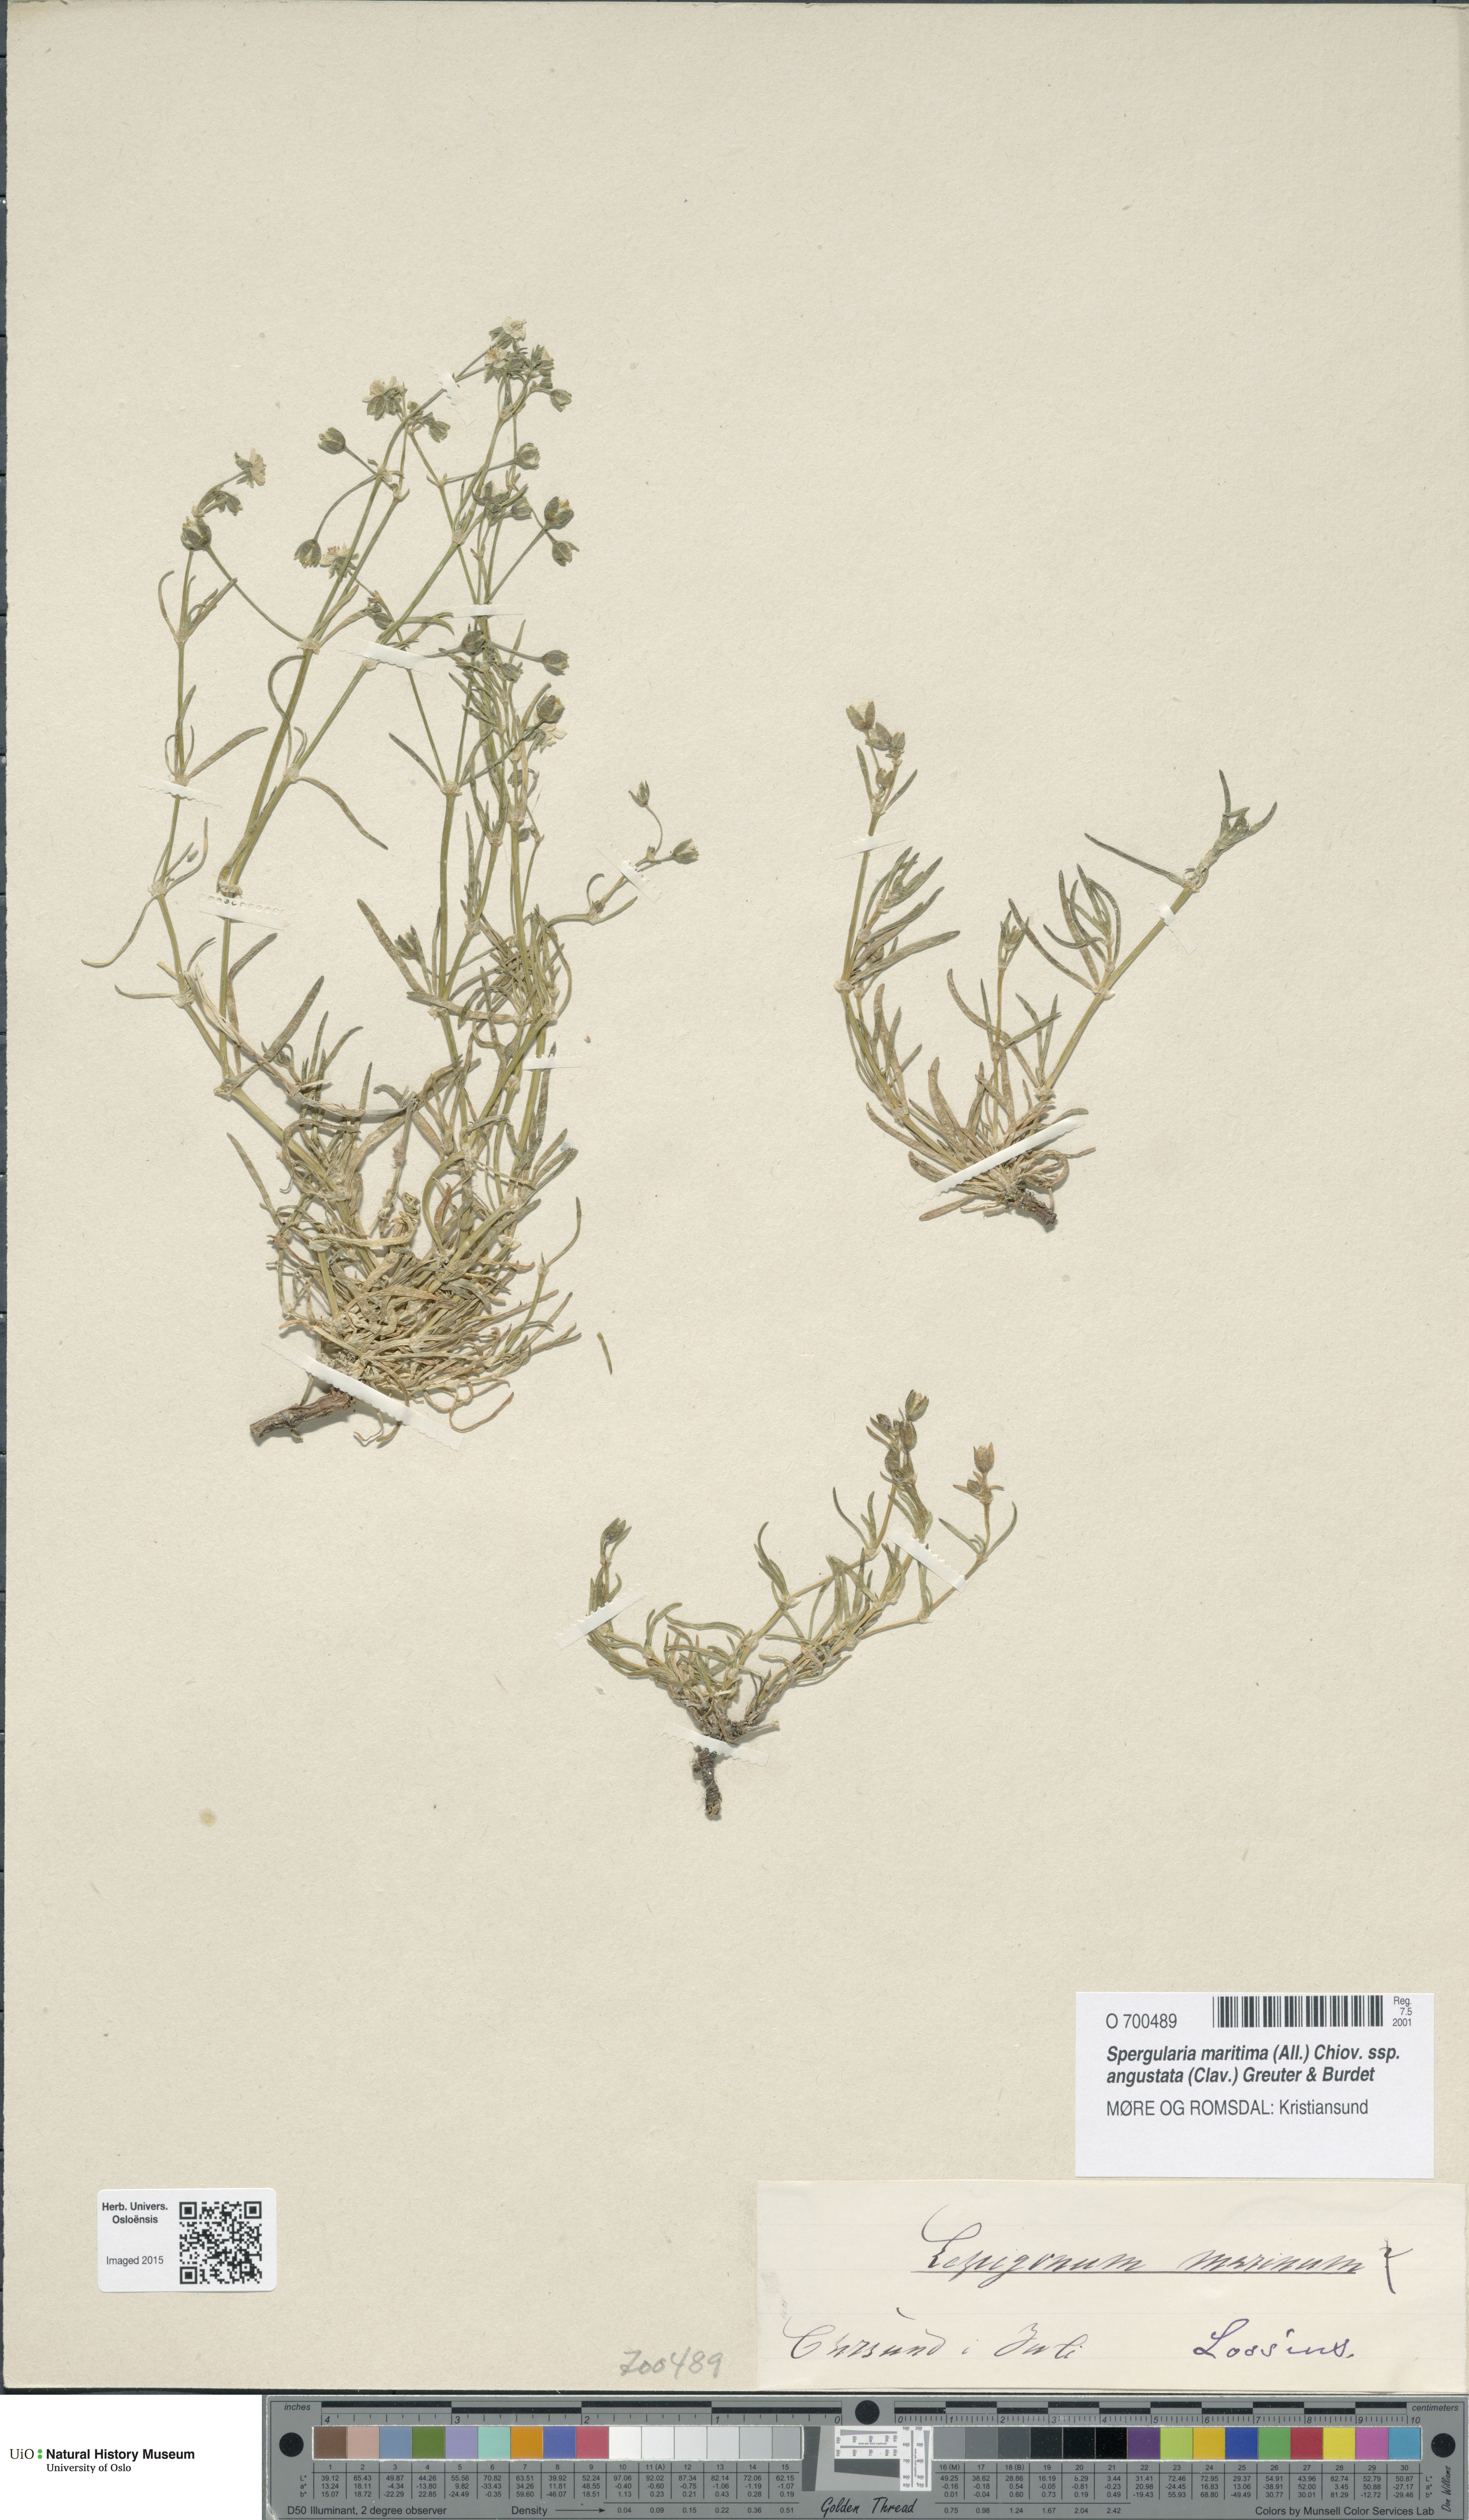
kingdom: Plantae
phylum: Tracheophyta
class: Magnoliopsida
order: Caryophyllales
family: Caryophyllaceae
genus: Spergularia
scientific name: Spergularia marina
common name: Lesser sea-spurrey
